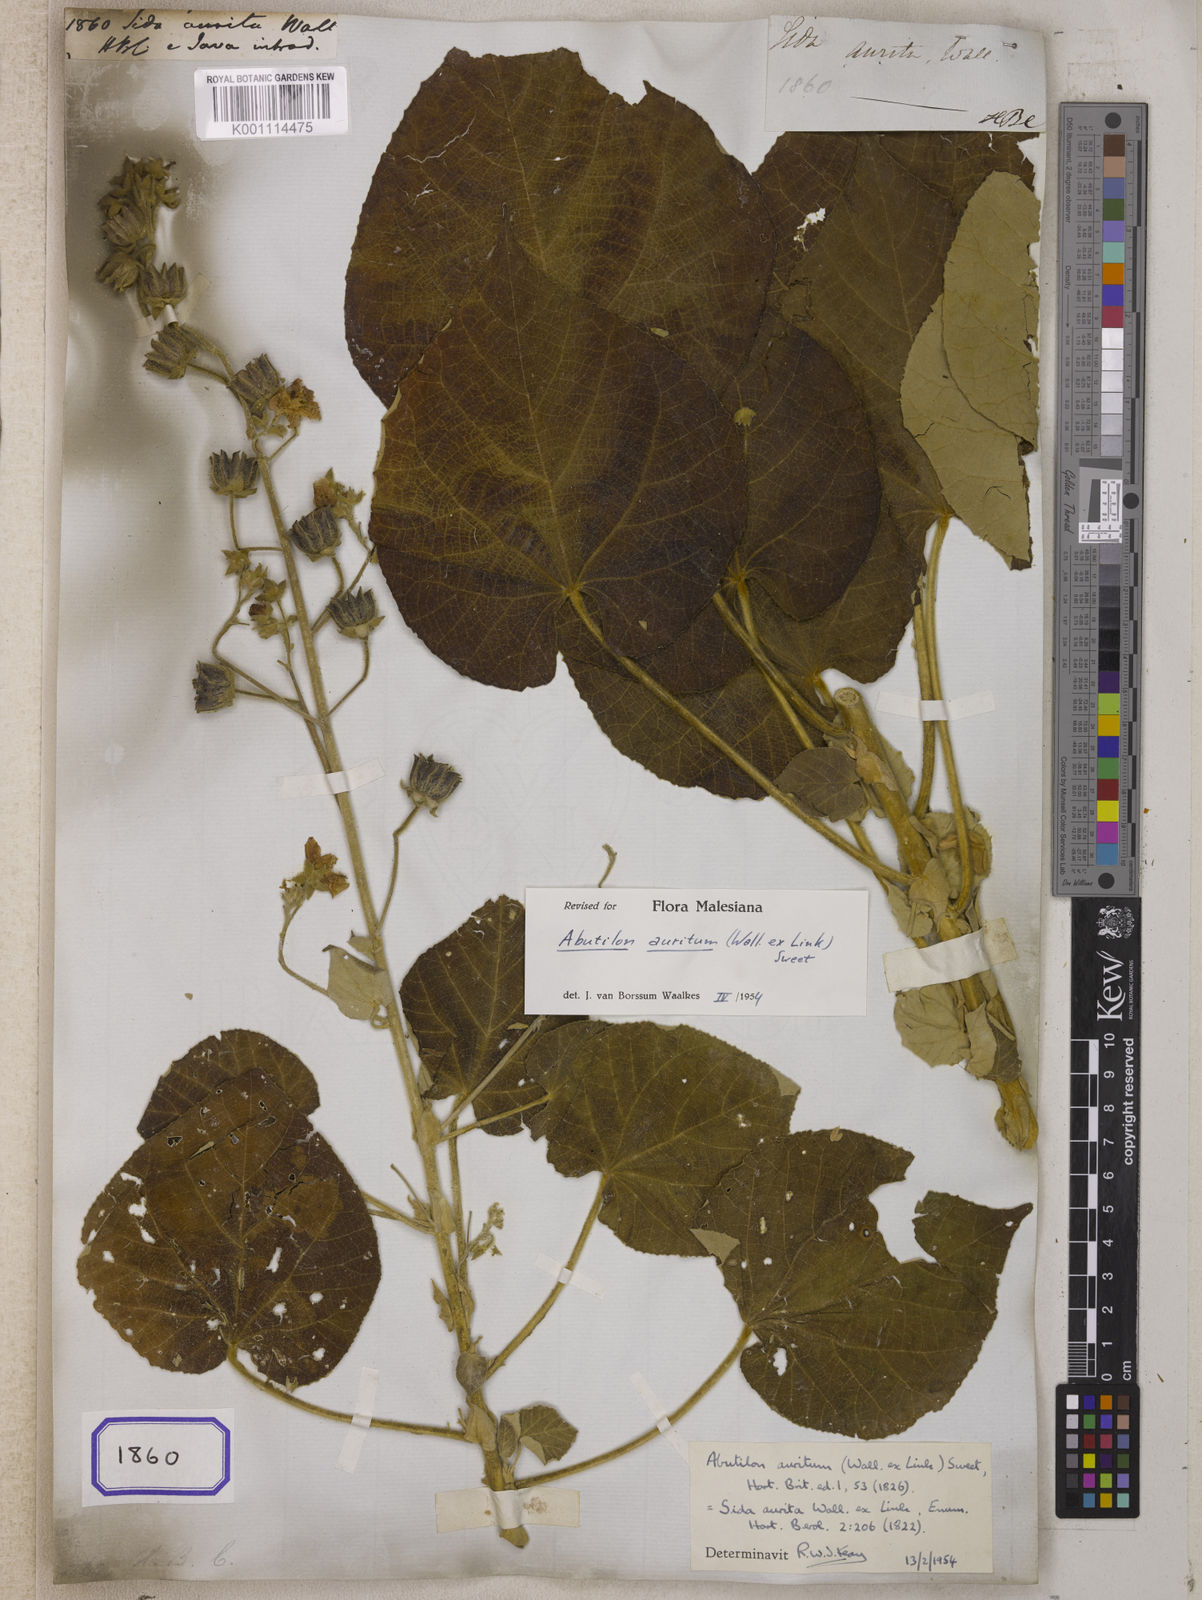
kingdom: Plantae
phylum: Tracheophyta
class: Magnoliopsida
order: Malvales
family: Malvaceae
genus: Sida
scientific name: Sida
